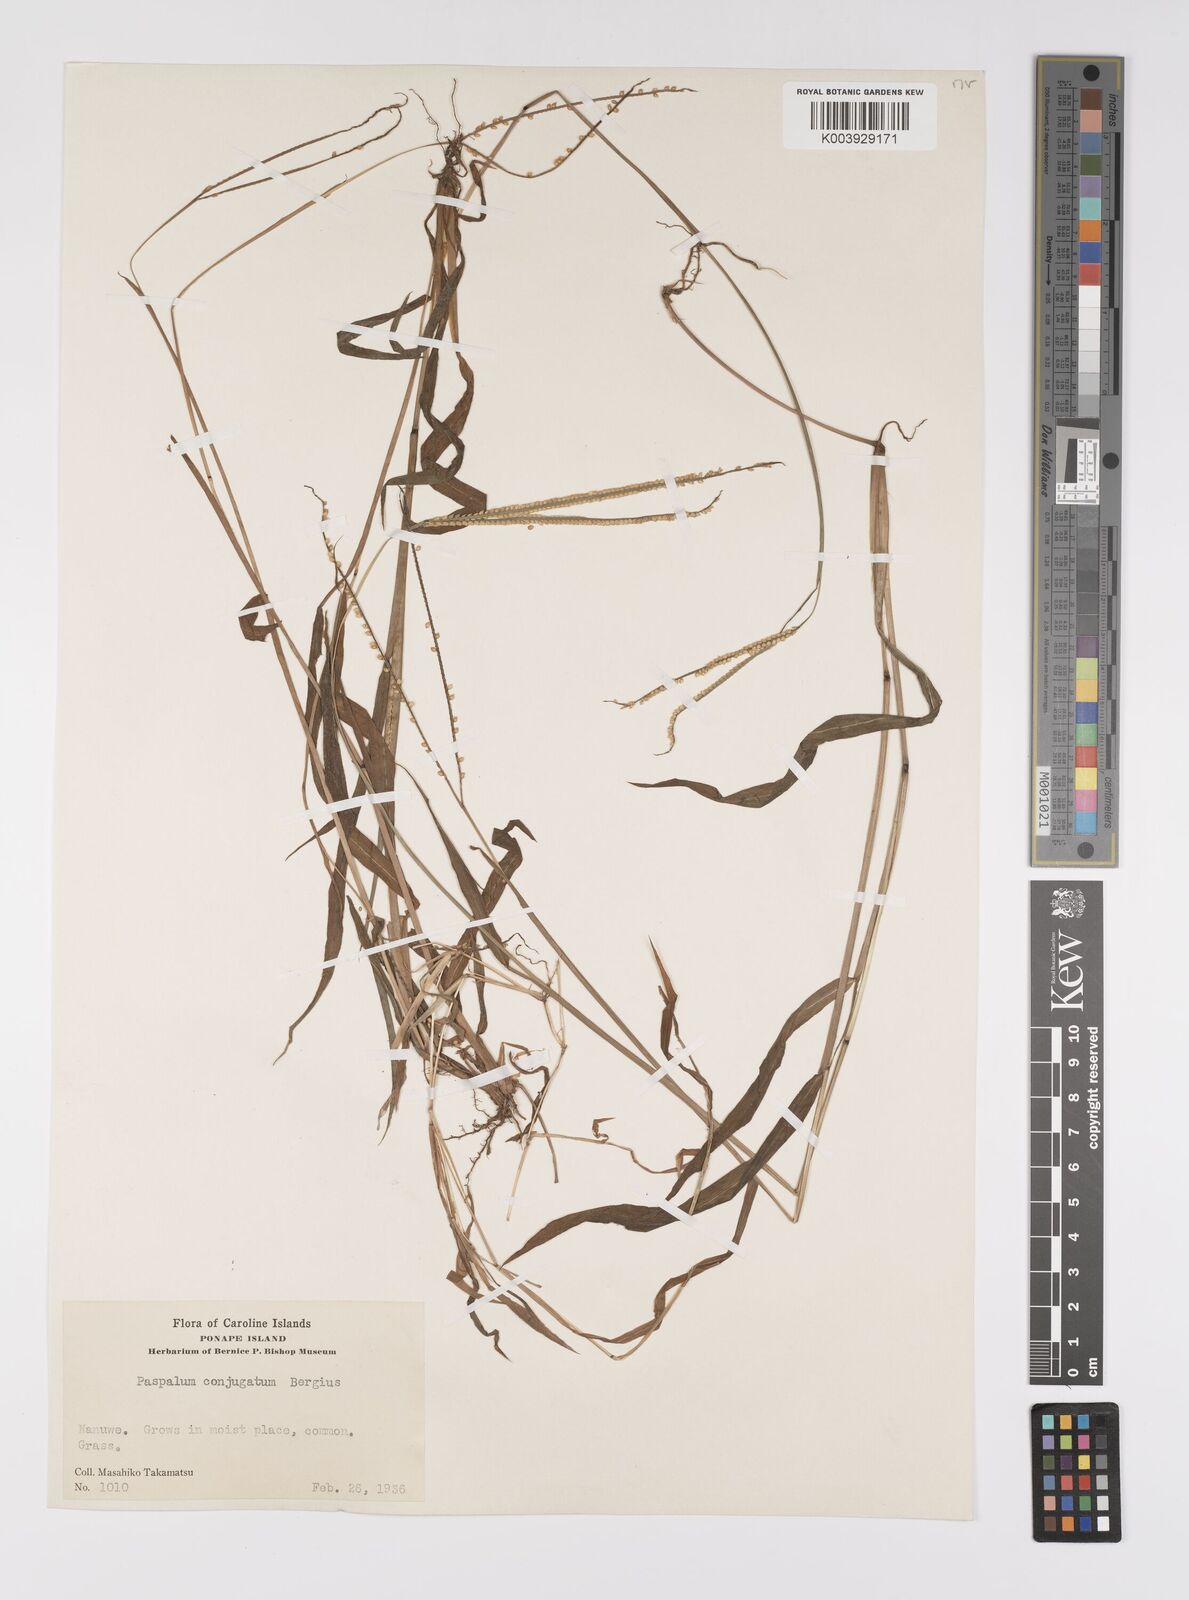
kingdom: Plantae
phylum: Tracheophyta
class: Liliopsida
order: Poales
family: Poaceae
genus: Paspalum
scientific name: Paspalum conjugatum
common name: Hilograss
